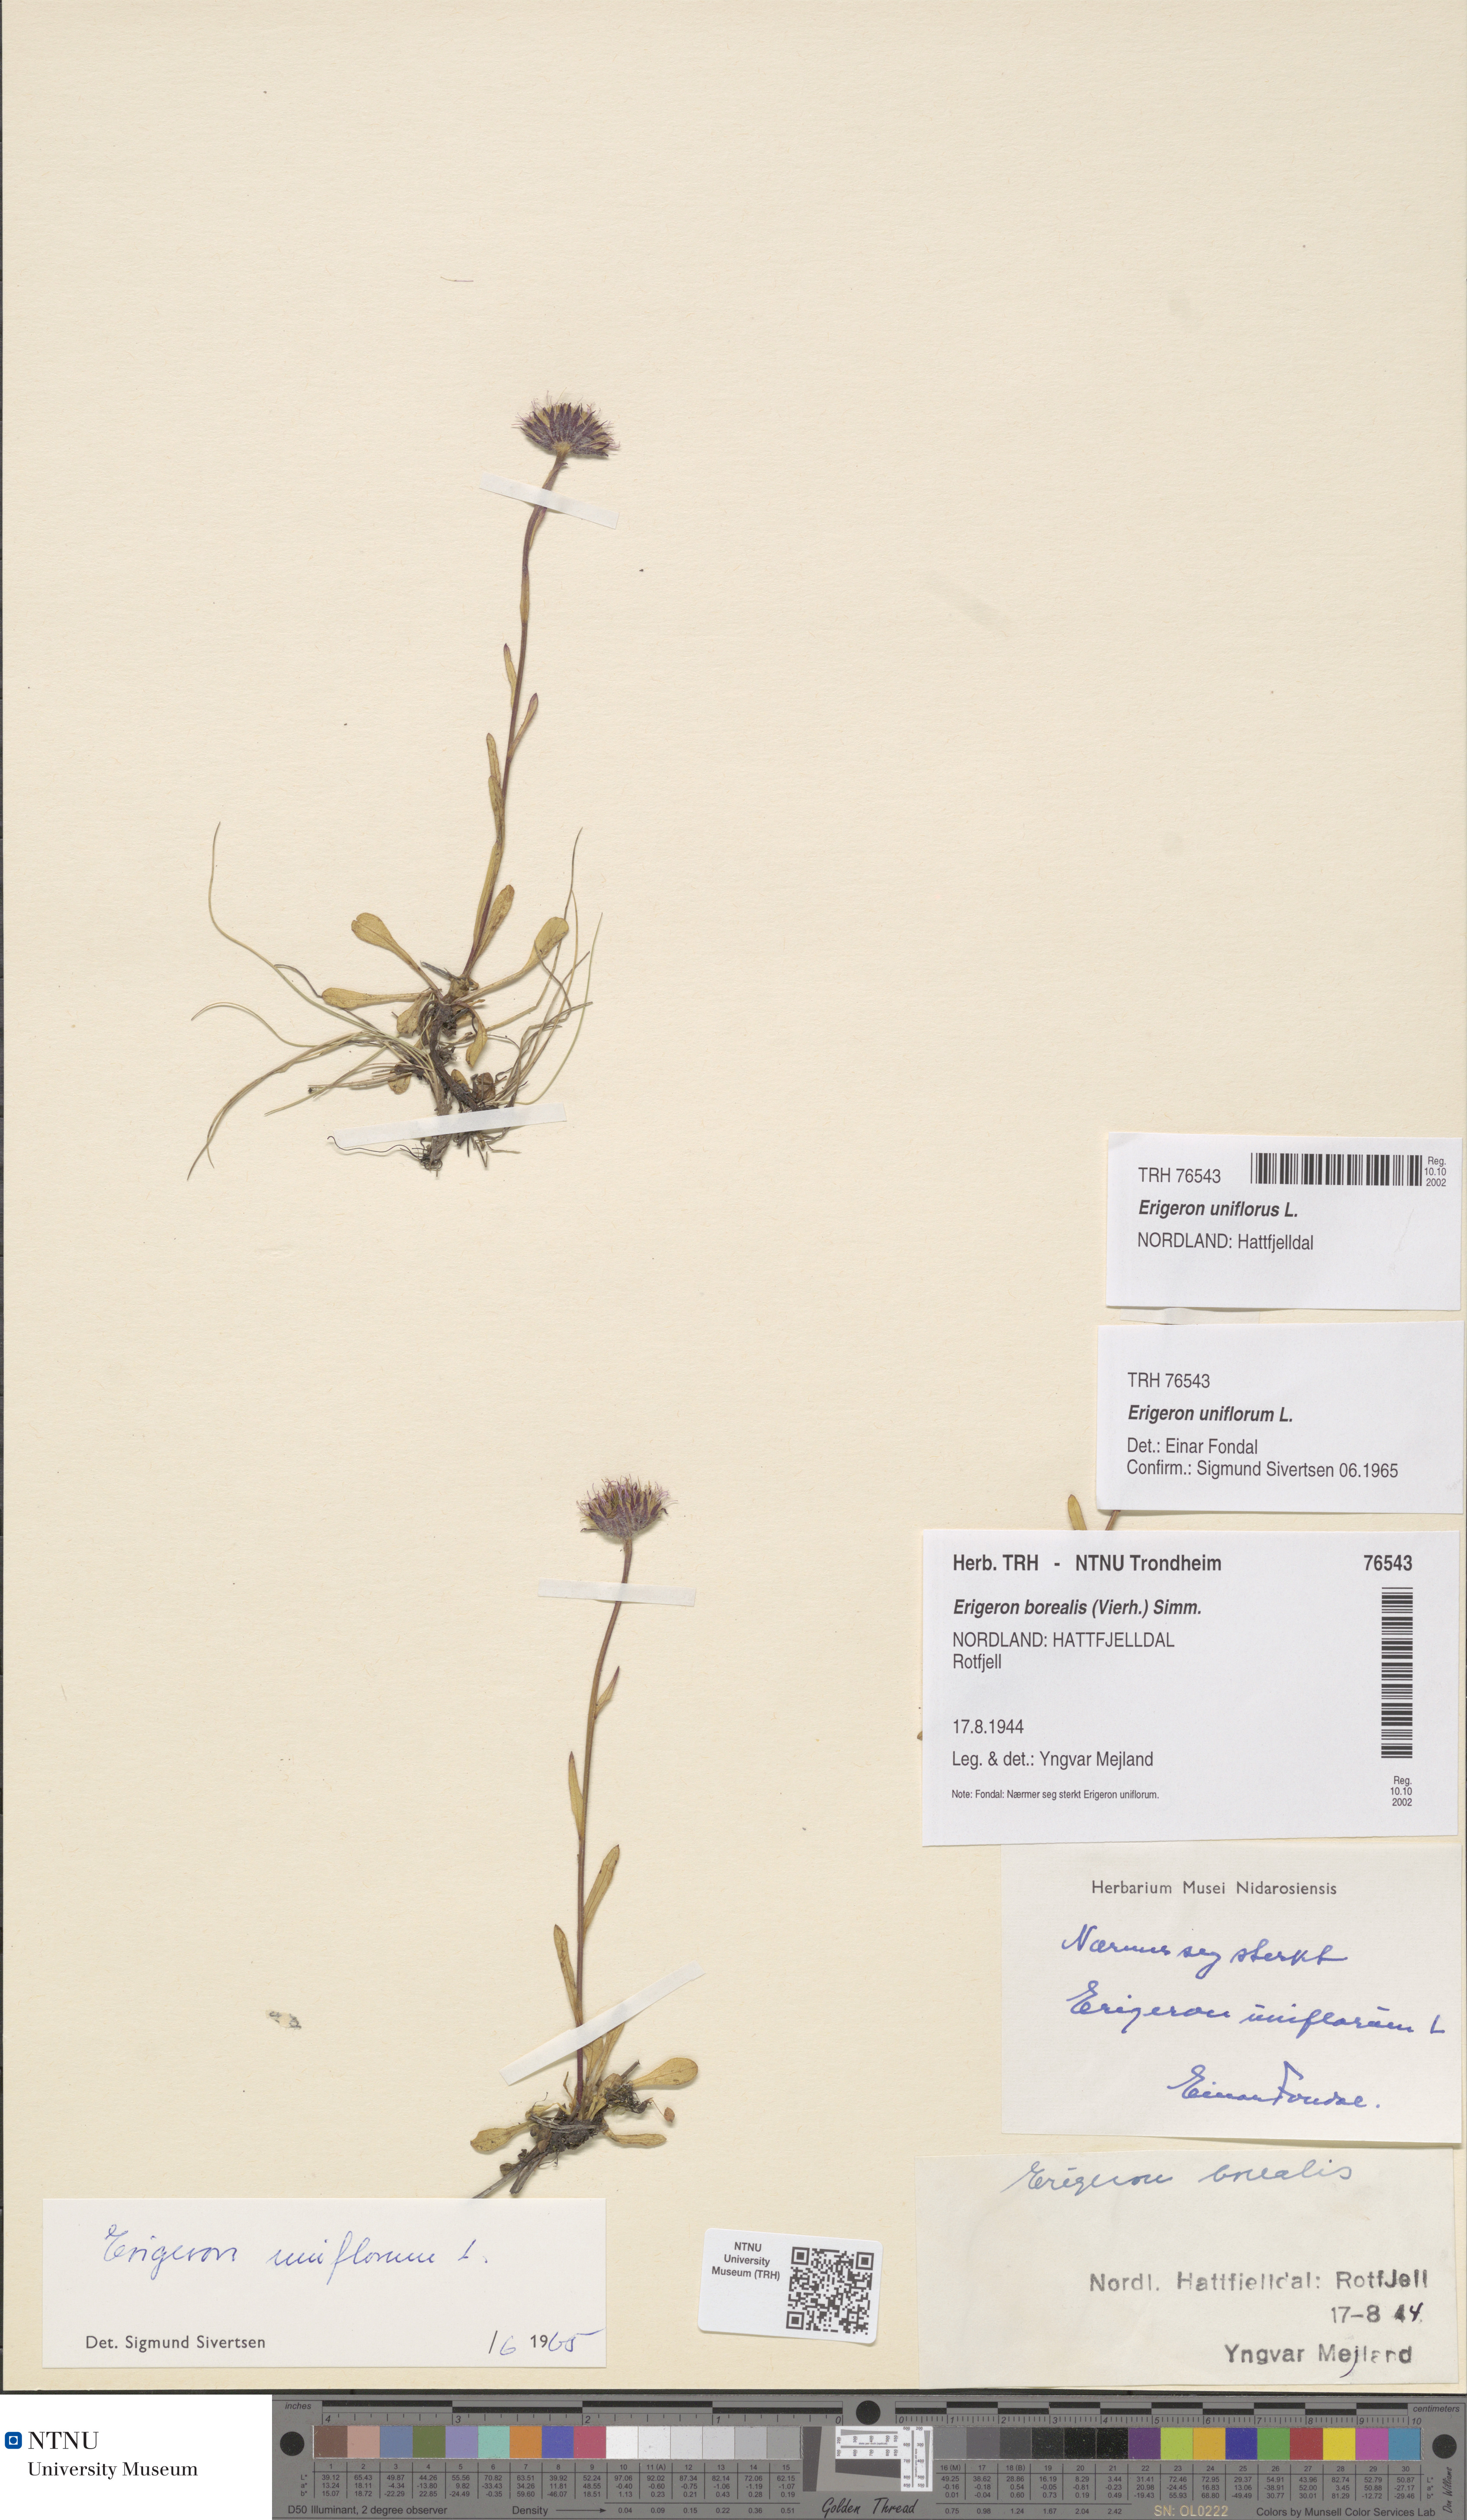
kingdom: Plantae
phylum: Tracheophyta
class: Magnoliopsida
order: Asterales
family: Asteraceae
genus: Erigeron
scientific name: Erigeron uniflorus
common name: Northern daisy
